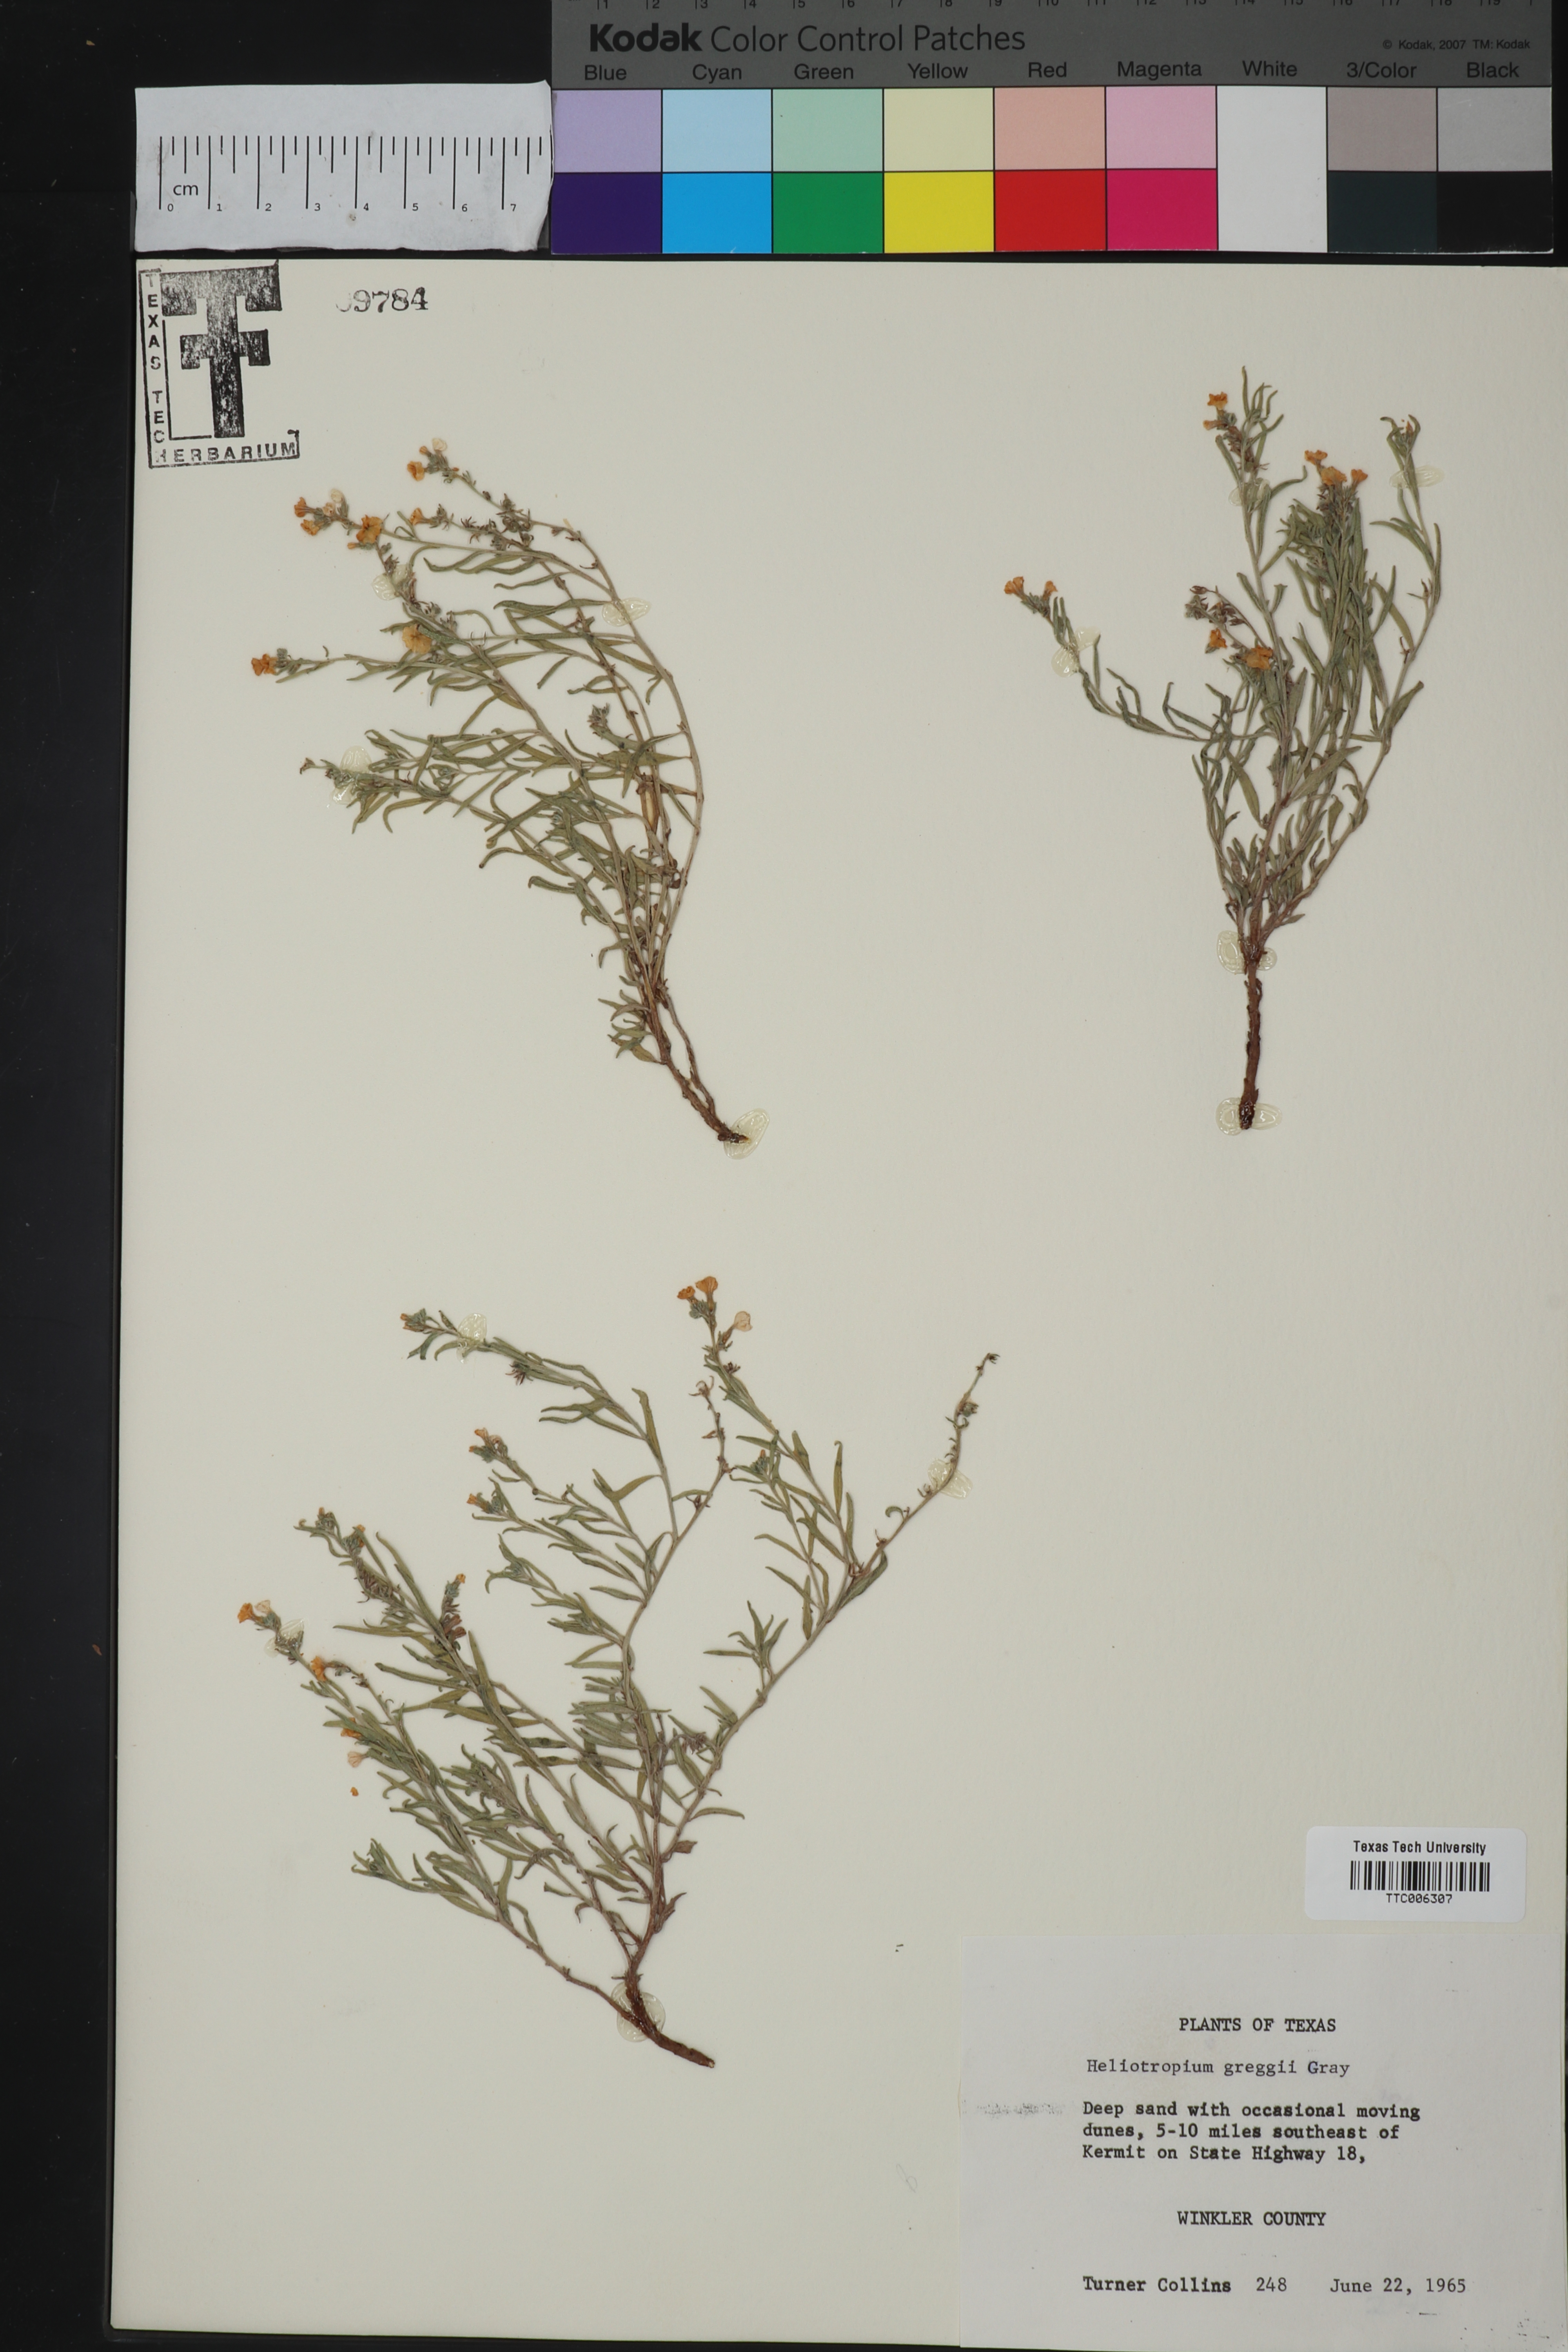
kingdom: Plantae
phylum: Tracheophyta
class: Magnoliopsida
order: Boraginales
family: Heliotropiaceae
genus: Euploca
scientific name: Euploca greggii
